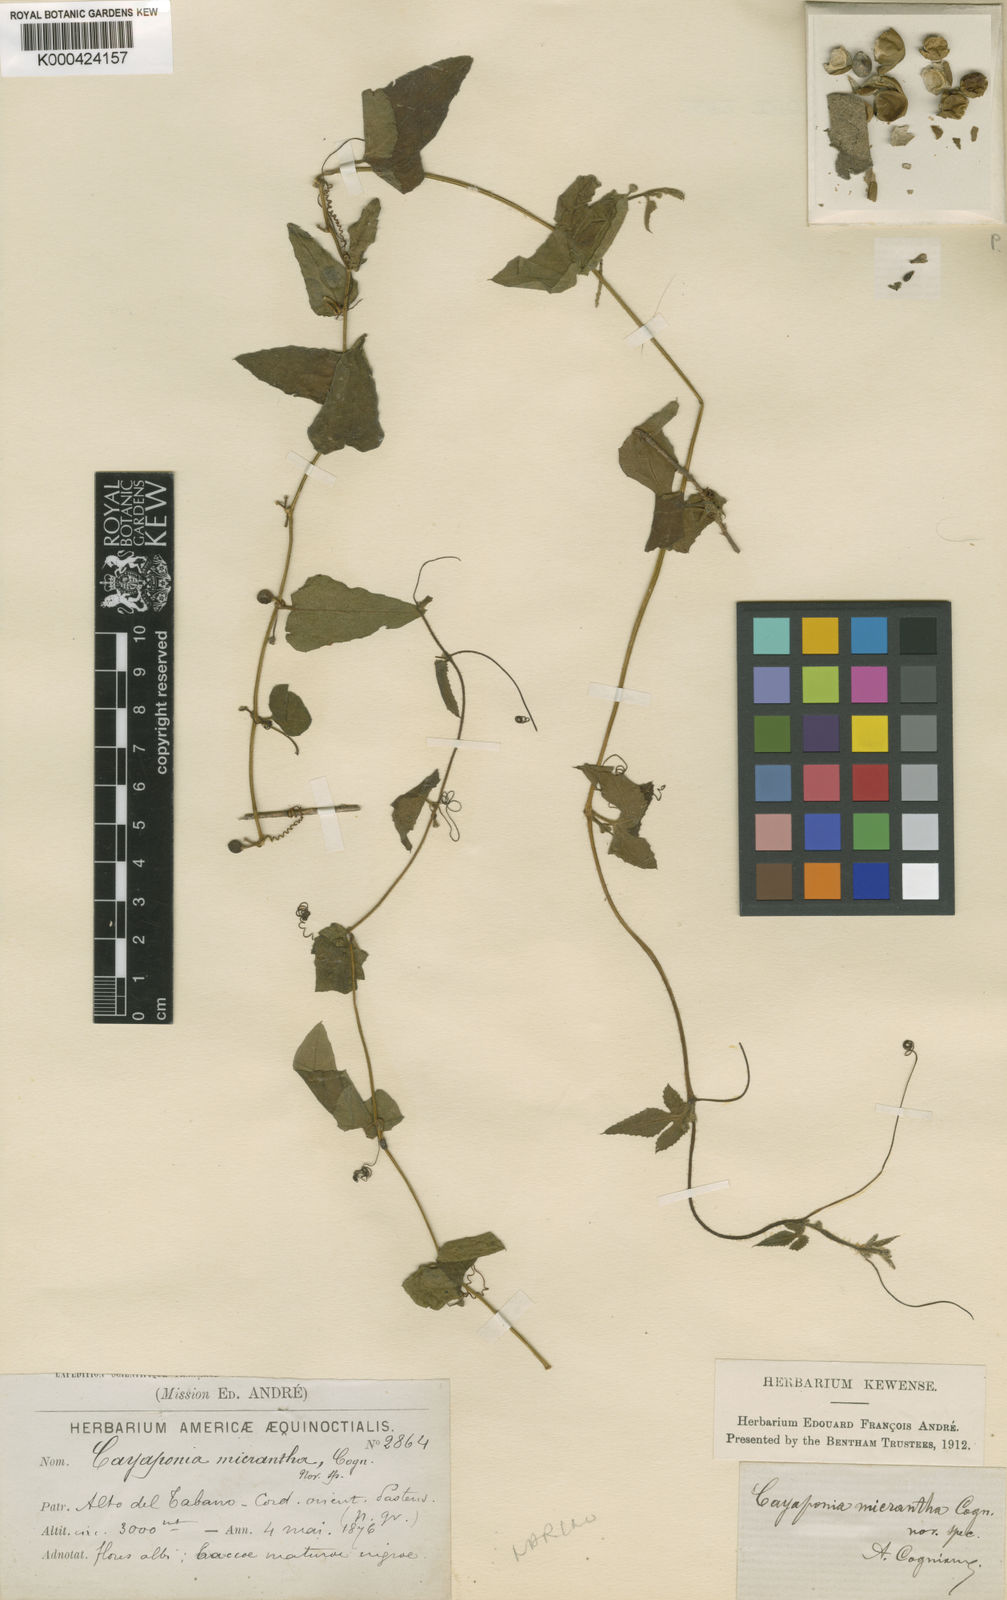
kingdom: Plantae
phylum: Tracheophyta
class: Magnoliopsida
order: Cucurbitales
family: Cucurbitaceae
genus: Cayaponia
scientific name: Cayaponia triangularis
